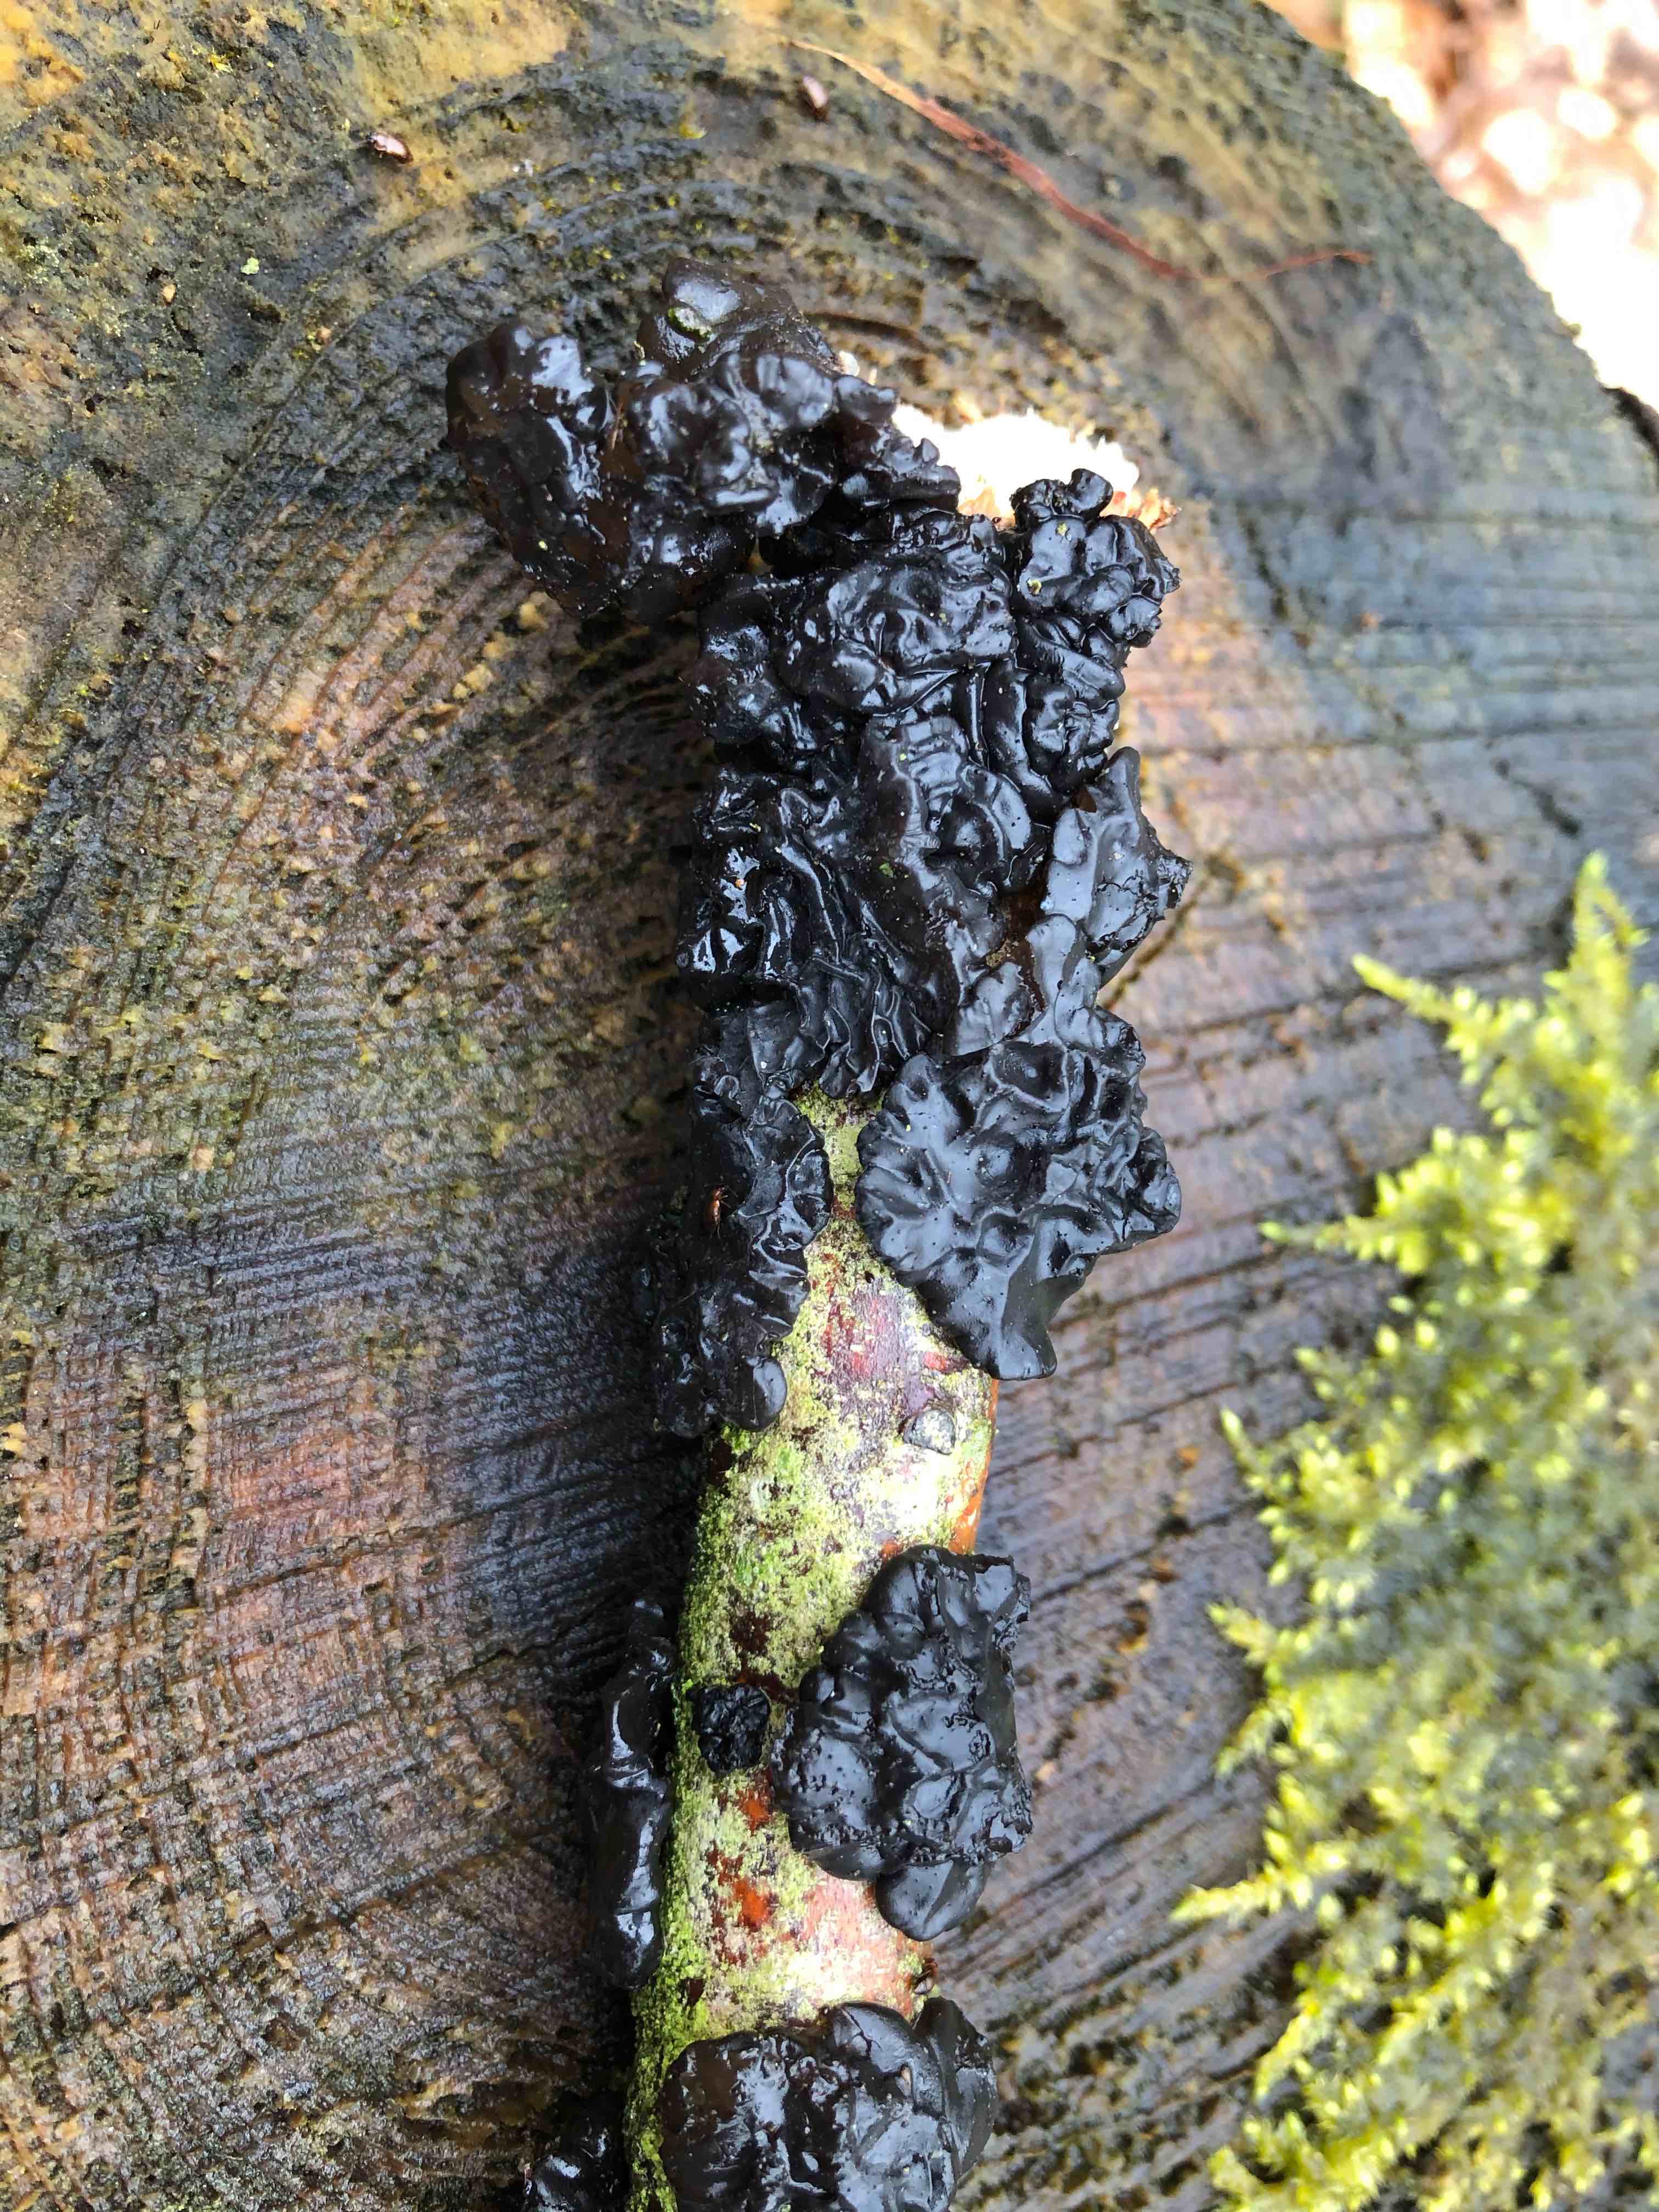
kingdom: Fungi
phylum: Basidiomycota
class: Agaricomycetes
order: Auriculariales
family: Auriculariaceae
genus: Exidia
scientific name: Exidia nigricans
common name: almindelig bævretop
